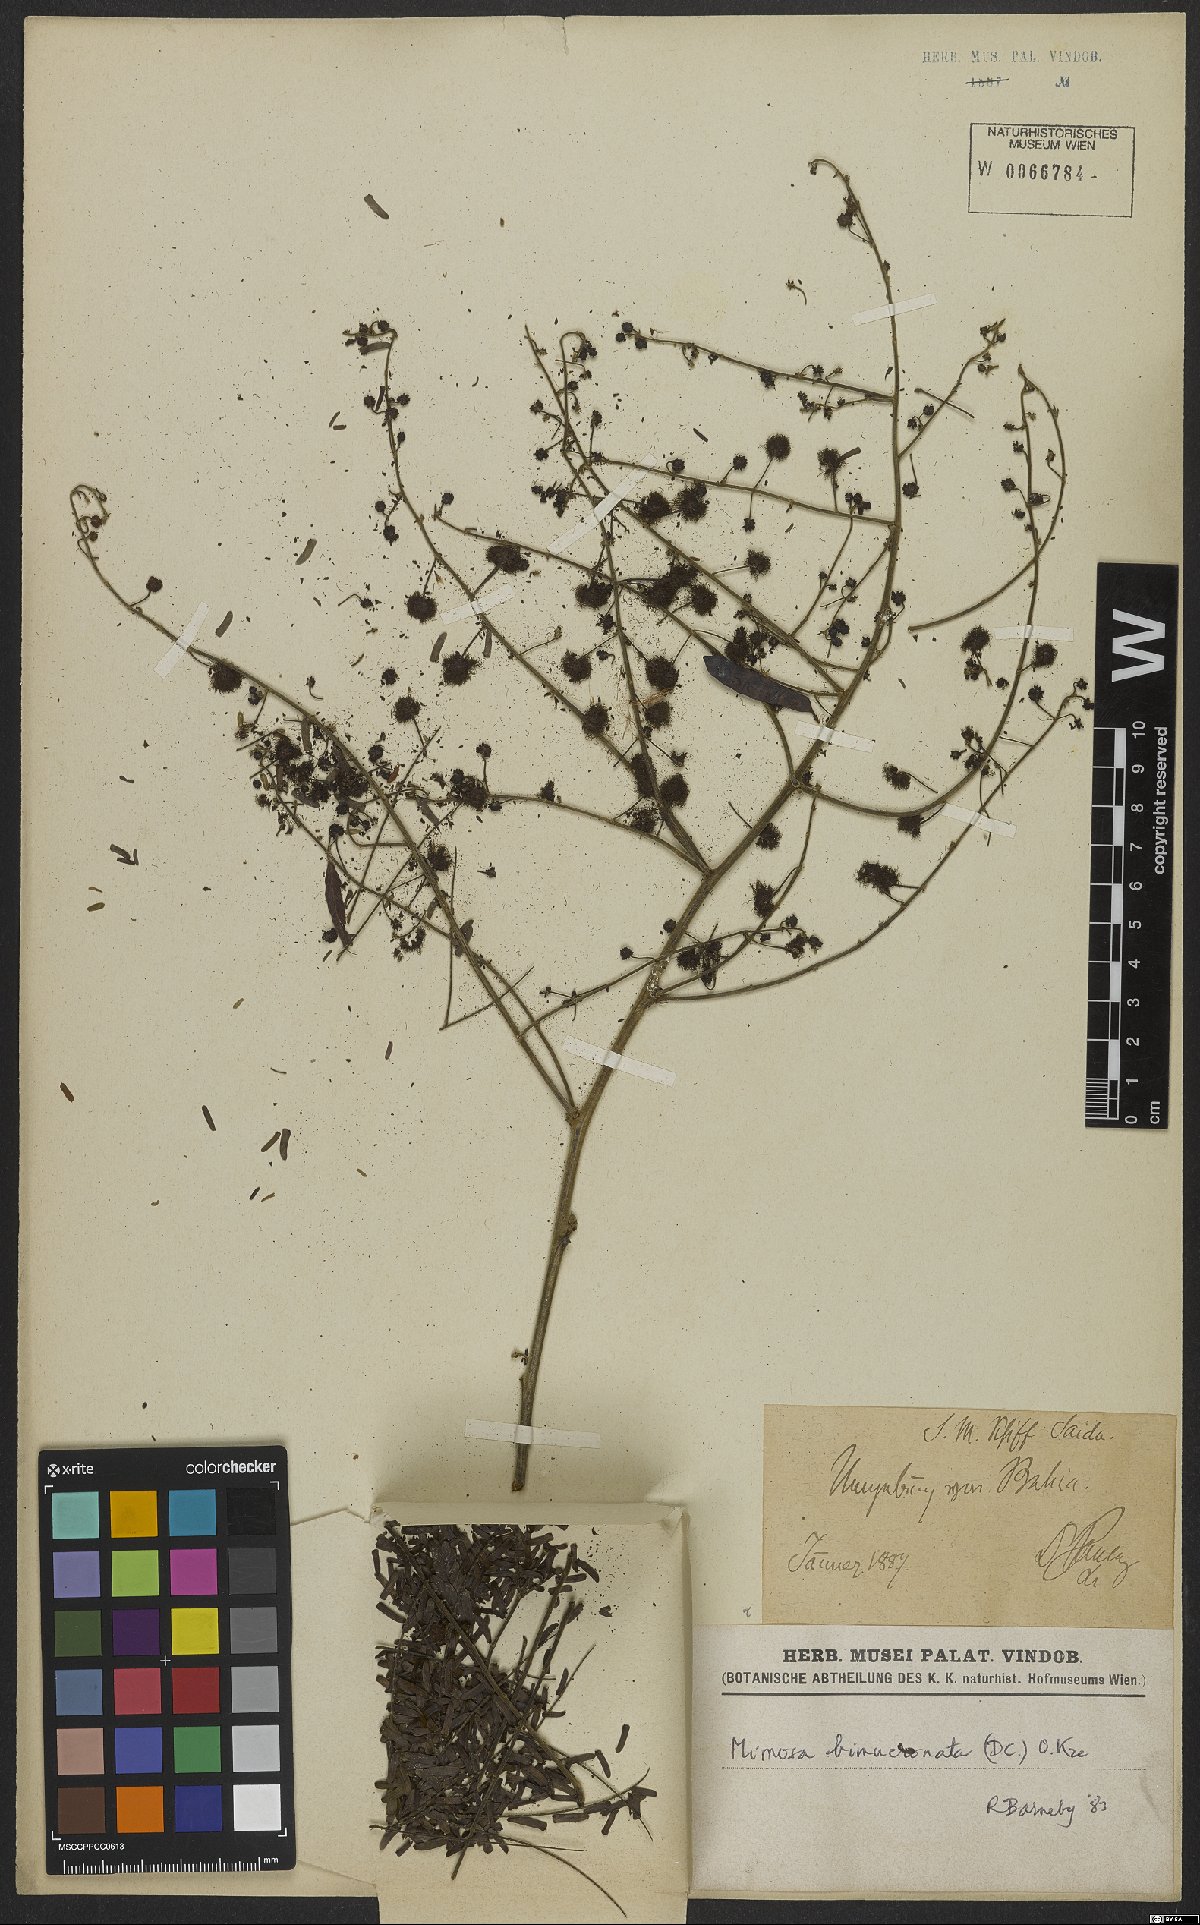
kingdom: Plantae
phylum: Tracheophyta
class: Magnoliopsida
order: Fabales
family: Fabaceae
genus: Mimosa
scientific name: Mimosa bimucronata
